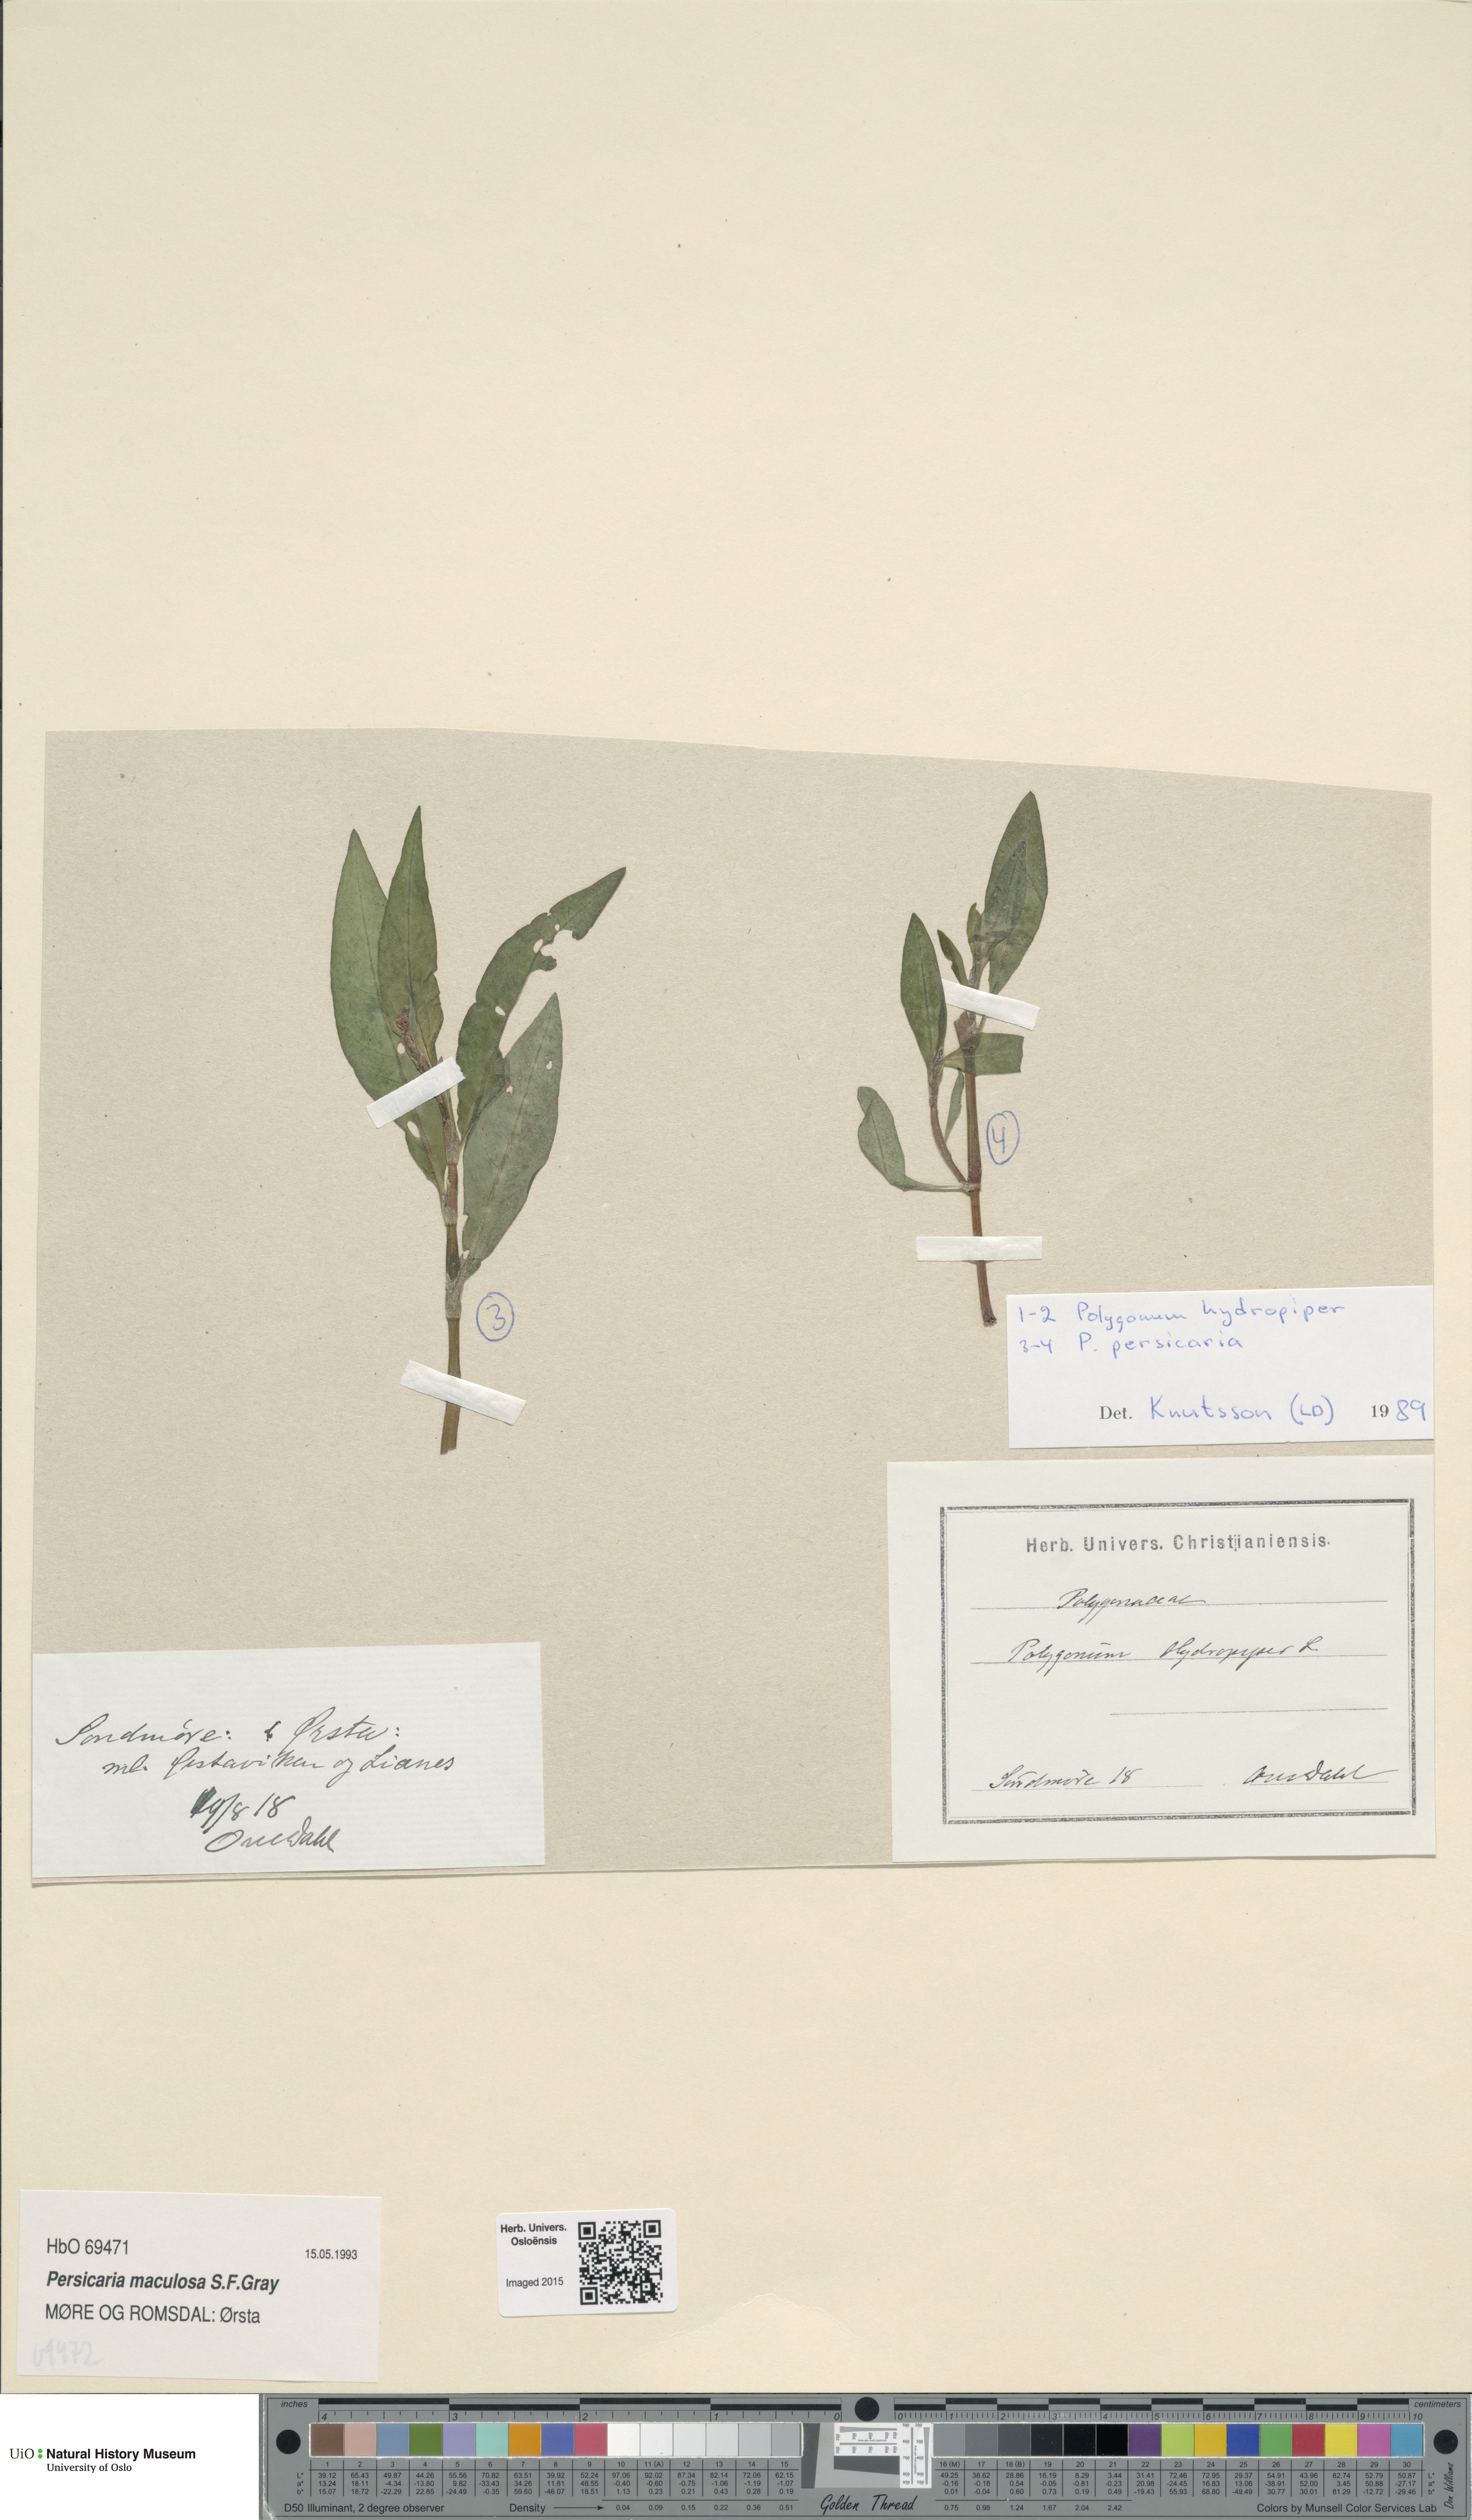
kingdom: Plantae
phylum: Tracheophyta
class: Magnoliopsida
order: Caryophyllales
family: Polygonaceae
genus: Persicaria
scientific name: Persicaria maculosa
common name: Redshank
